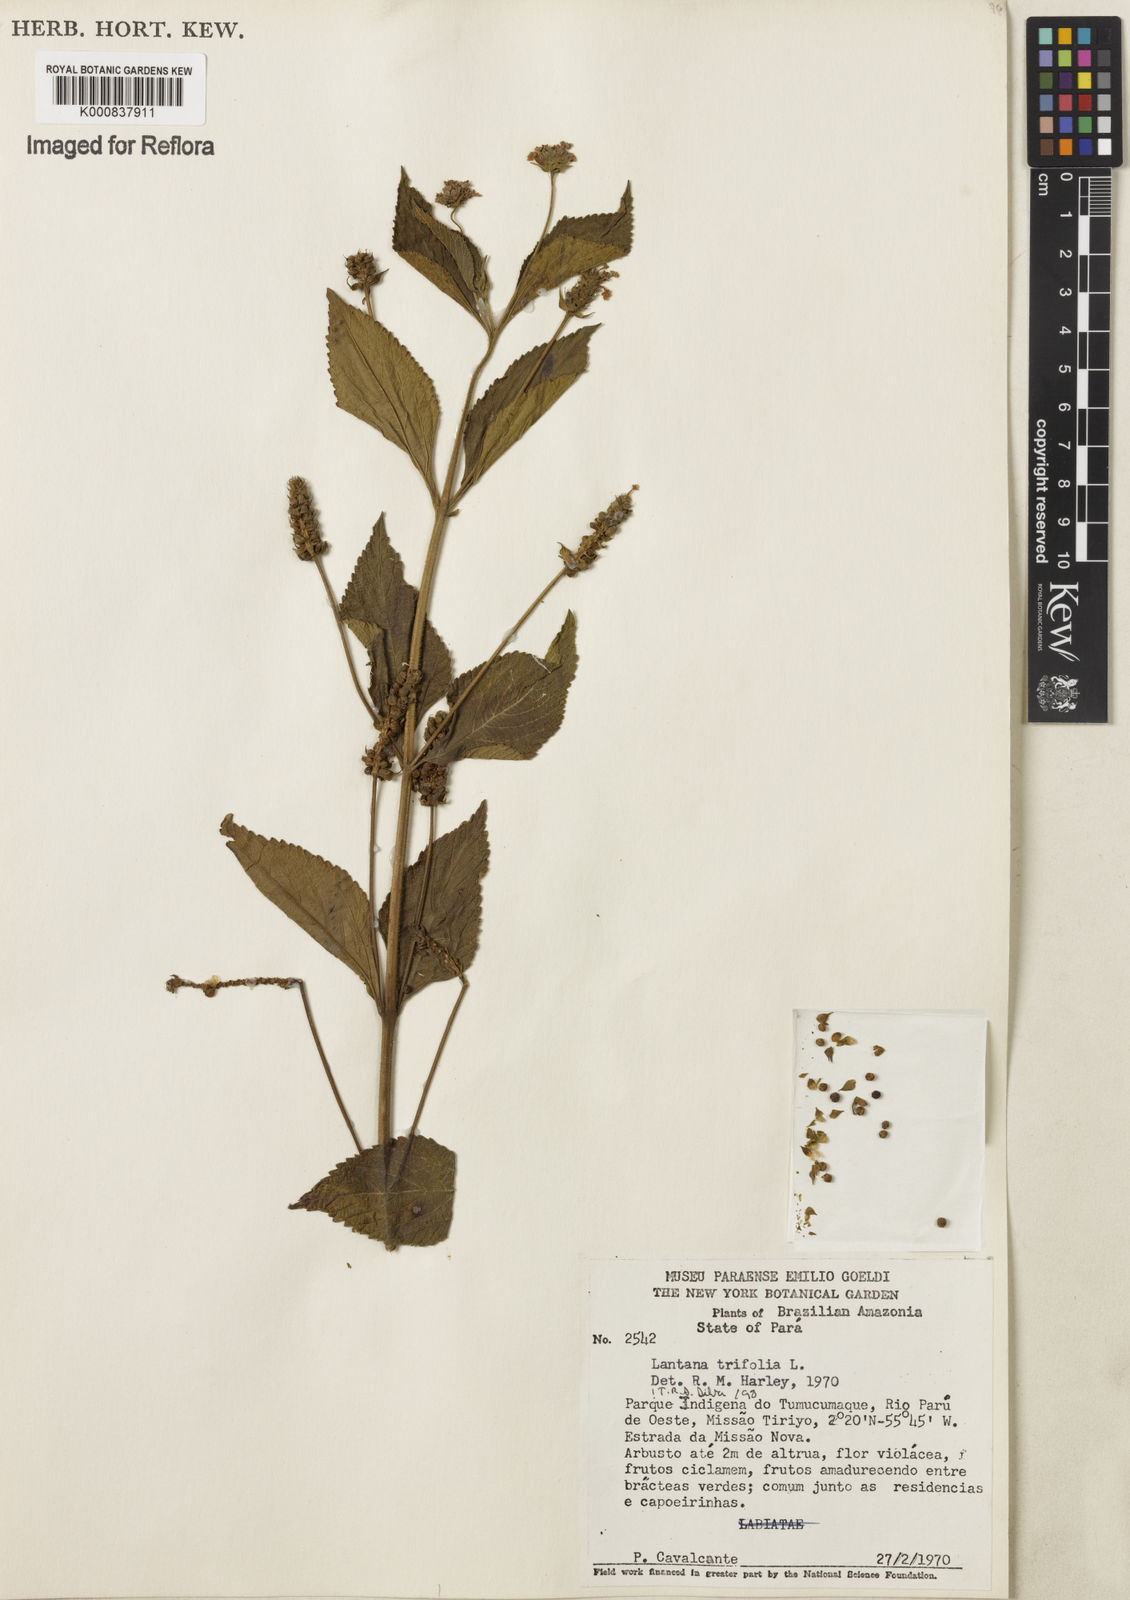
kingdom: Plantae
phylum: Tracheophyta
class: Magnoliopsida
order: Lamiales
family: Verbenaceae
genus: Lantana
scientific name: Lantana trifolia
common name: Sweet-sage
